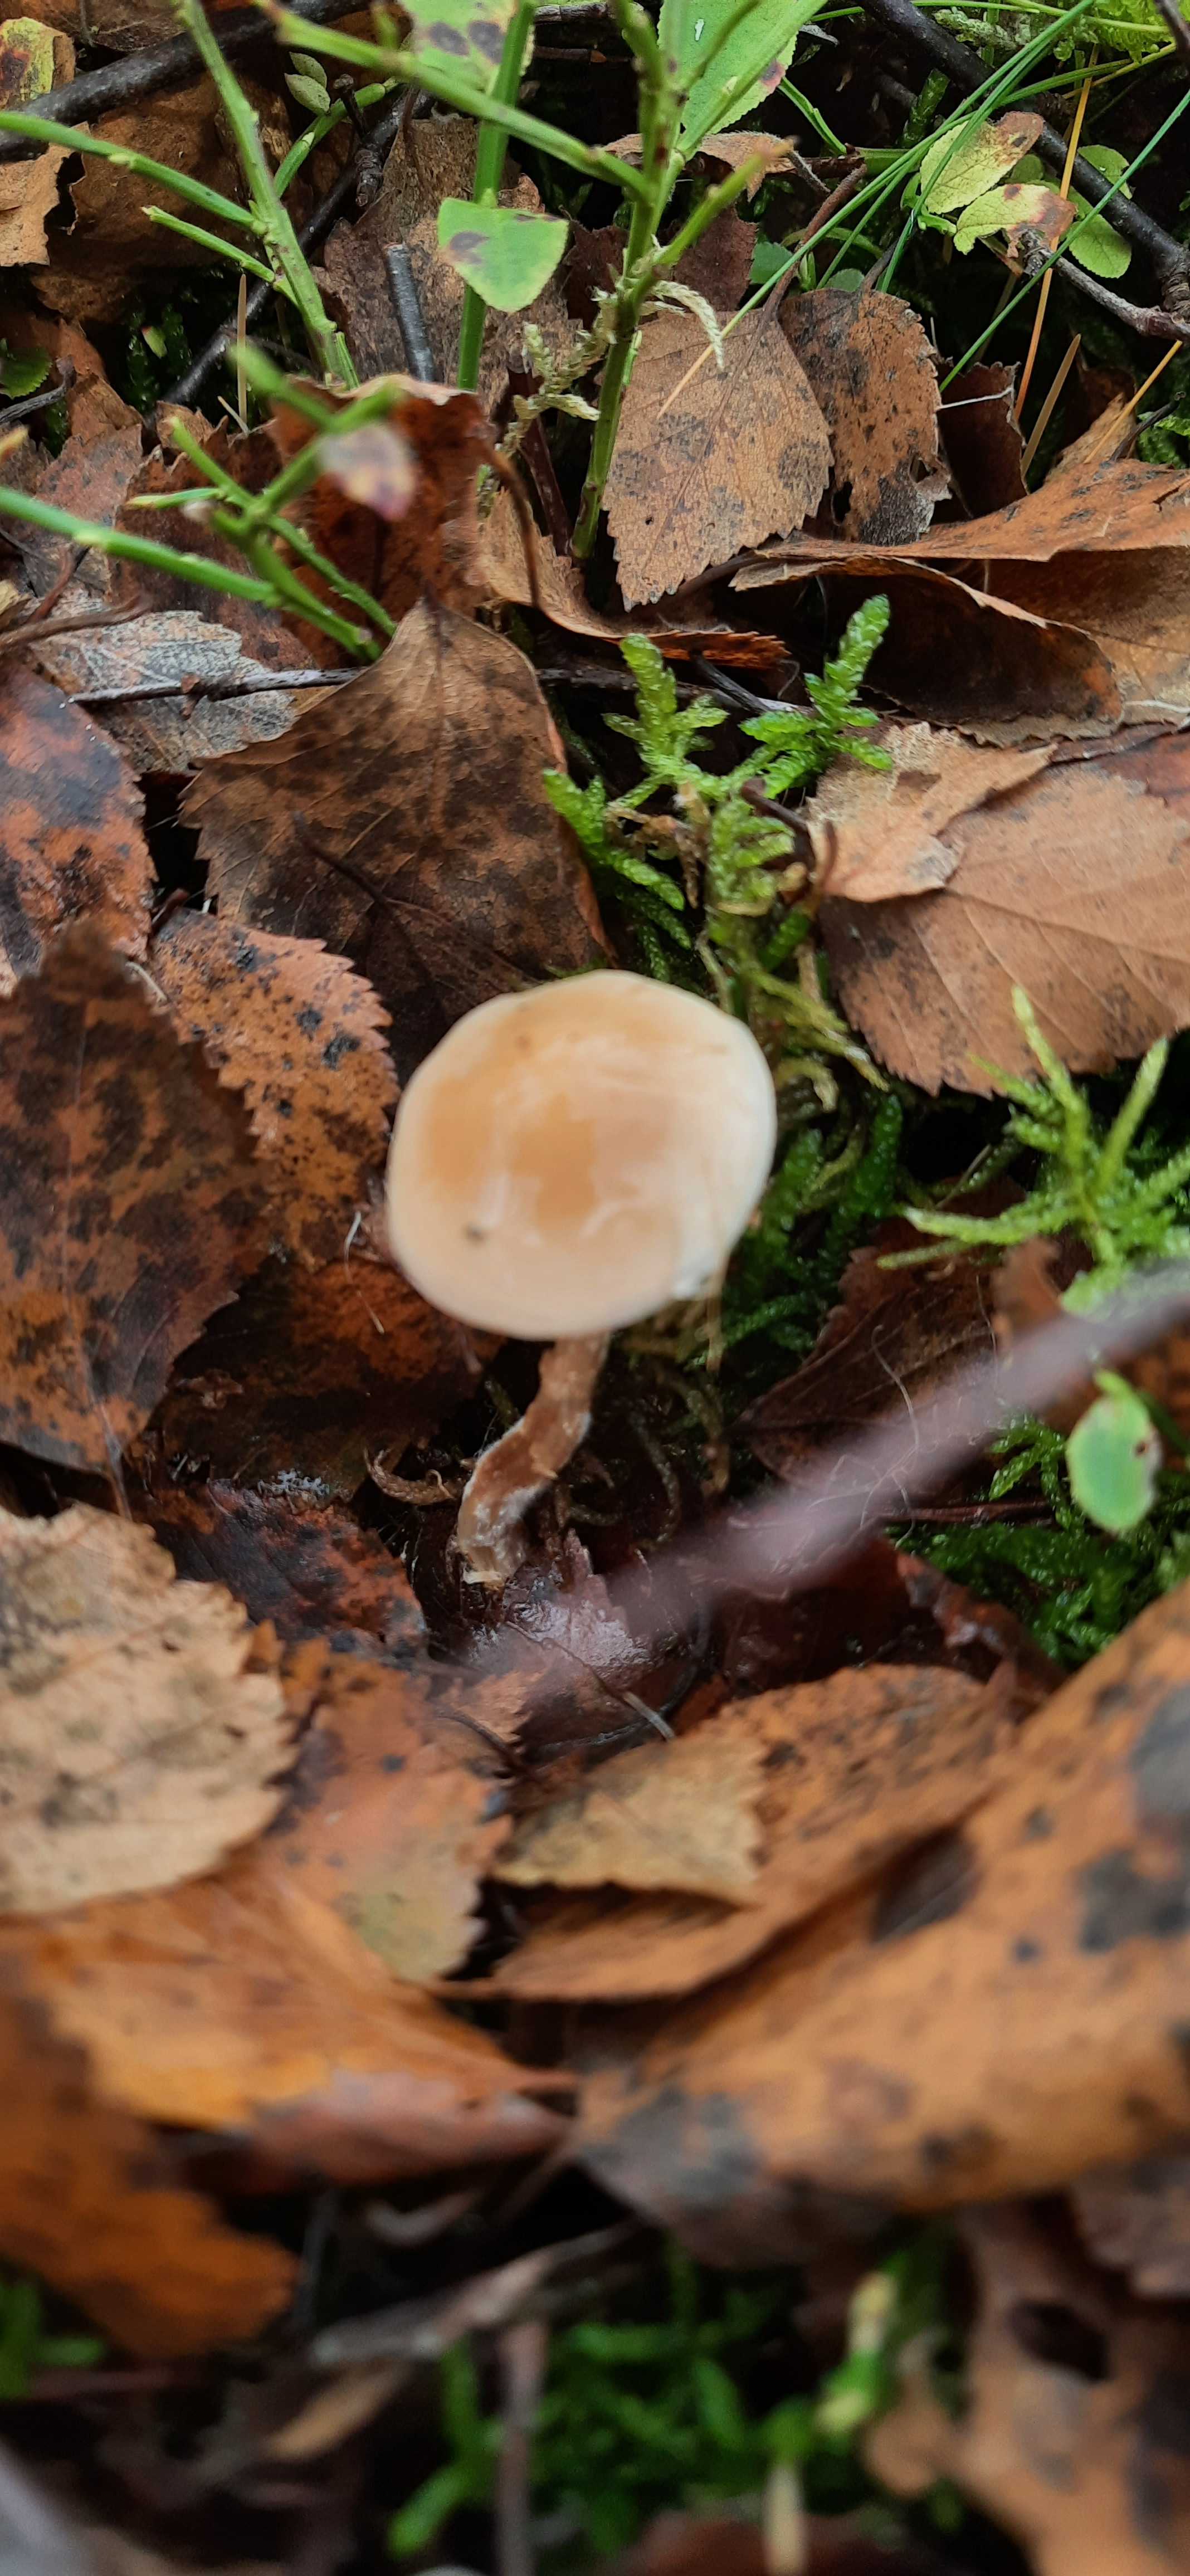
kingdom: Fungi
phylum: Basidiomycota
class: Agaricomycetes
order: Agaricales
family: Hymenogastraceae
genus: Hebeloma
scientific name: Hebeloma
